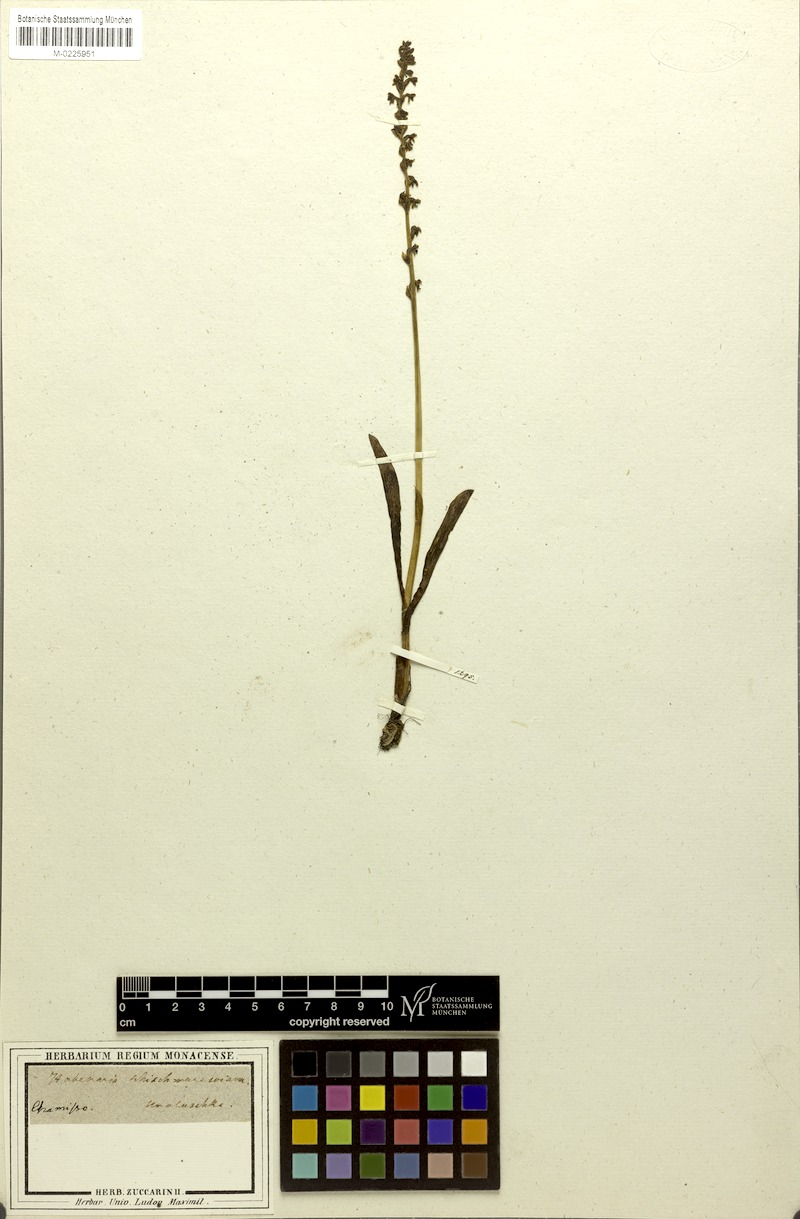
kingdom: Plantae
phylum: Tracheophyta
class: Liliopsida
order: Asparagales
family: Orchidaceae
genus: Platanthera
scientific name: Platanthera unalascensis
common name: Alaska bog orchid
